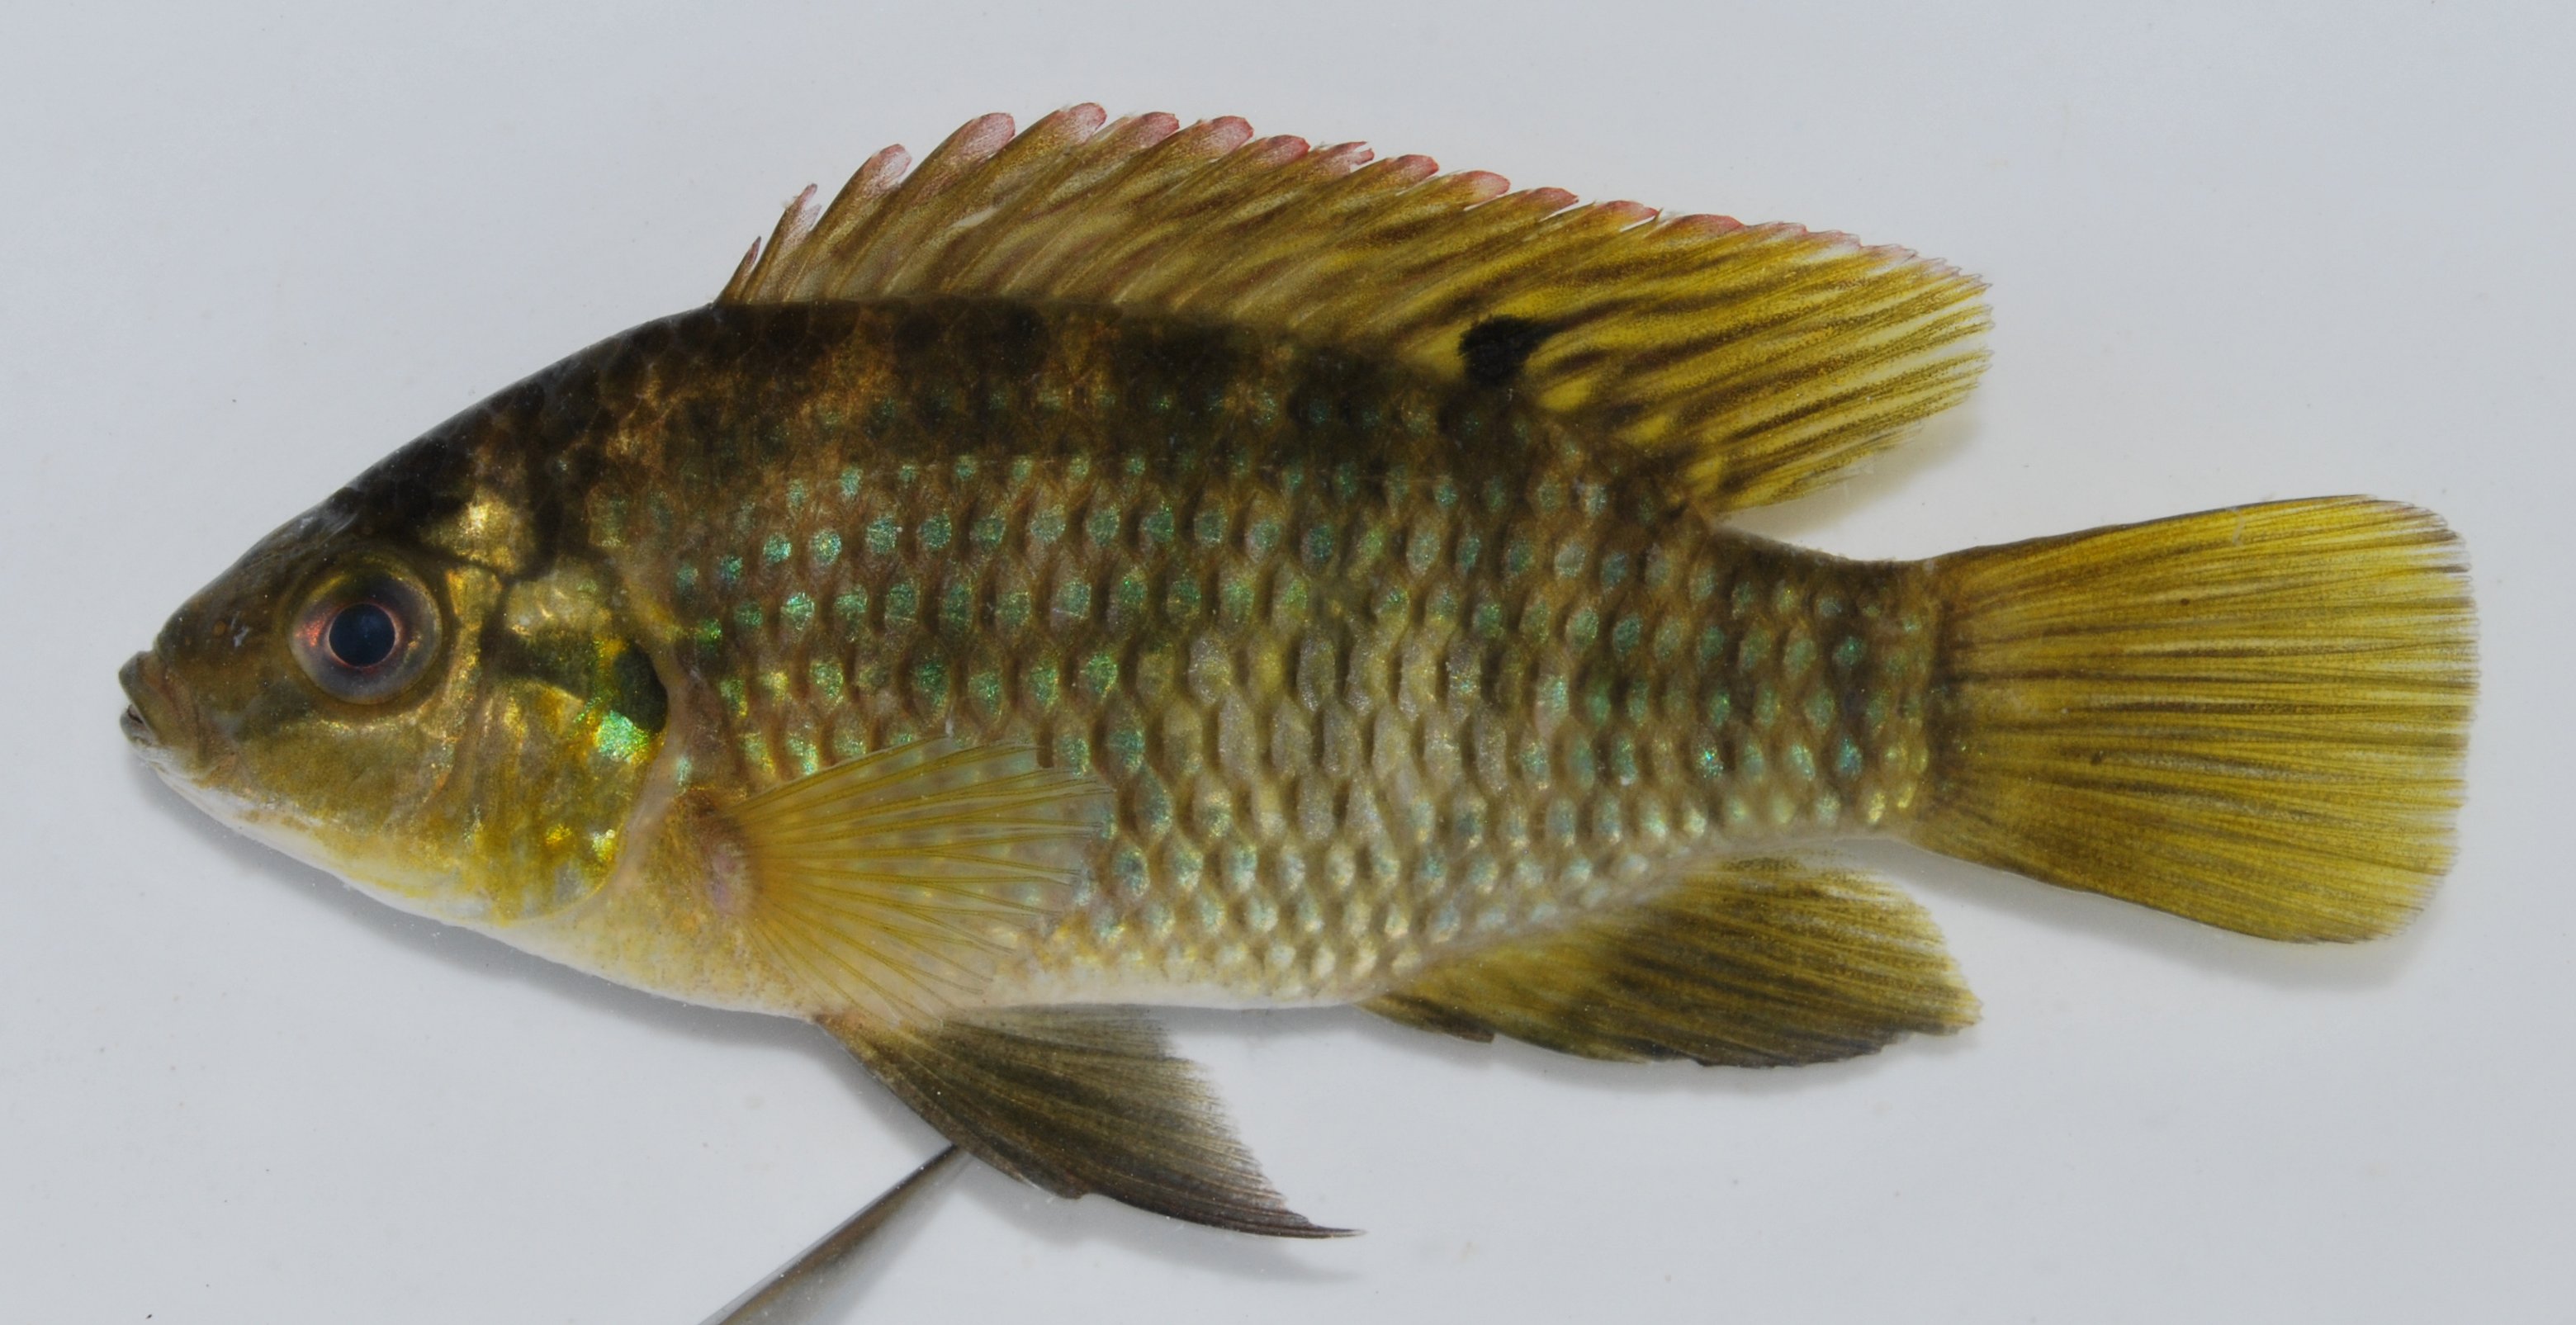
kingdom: Animalia
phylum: Chordata
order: Perciformes
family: Cichlidae
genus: Tilapia
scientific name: Tilapia sparrmanii
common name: Banded tilapia
